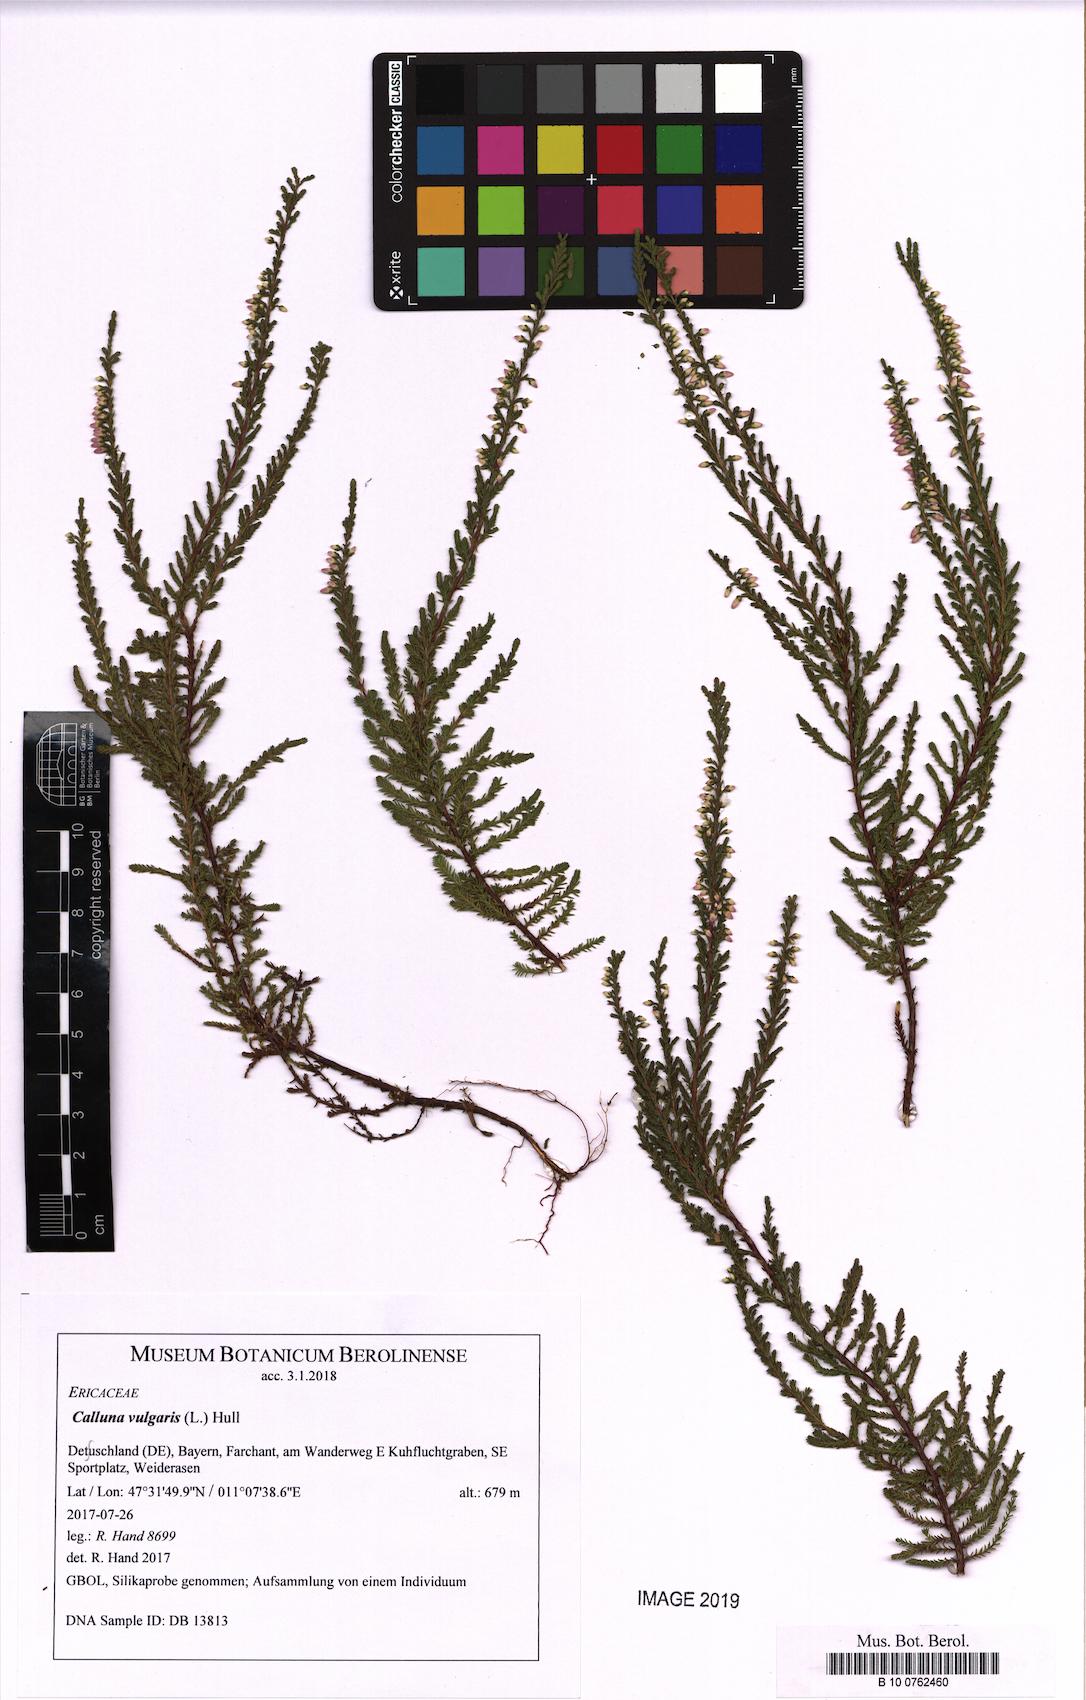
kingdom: Plantae
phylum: Tracheophyta
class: Magnoliopsida
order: Ericales
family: Ericaceae
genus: Calluna
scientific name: Calluna vulgaris
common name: Heather
